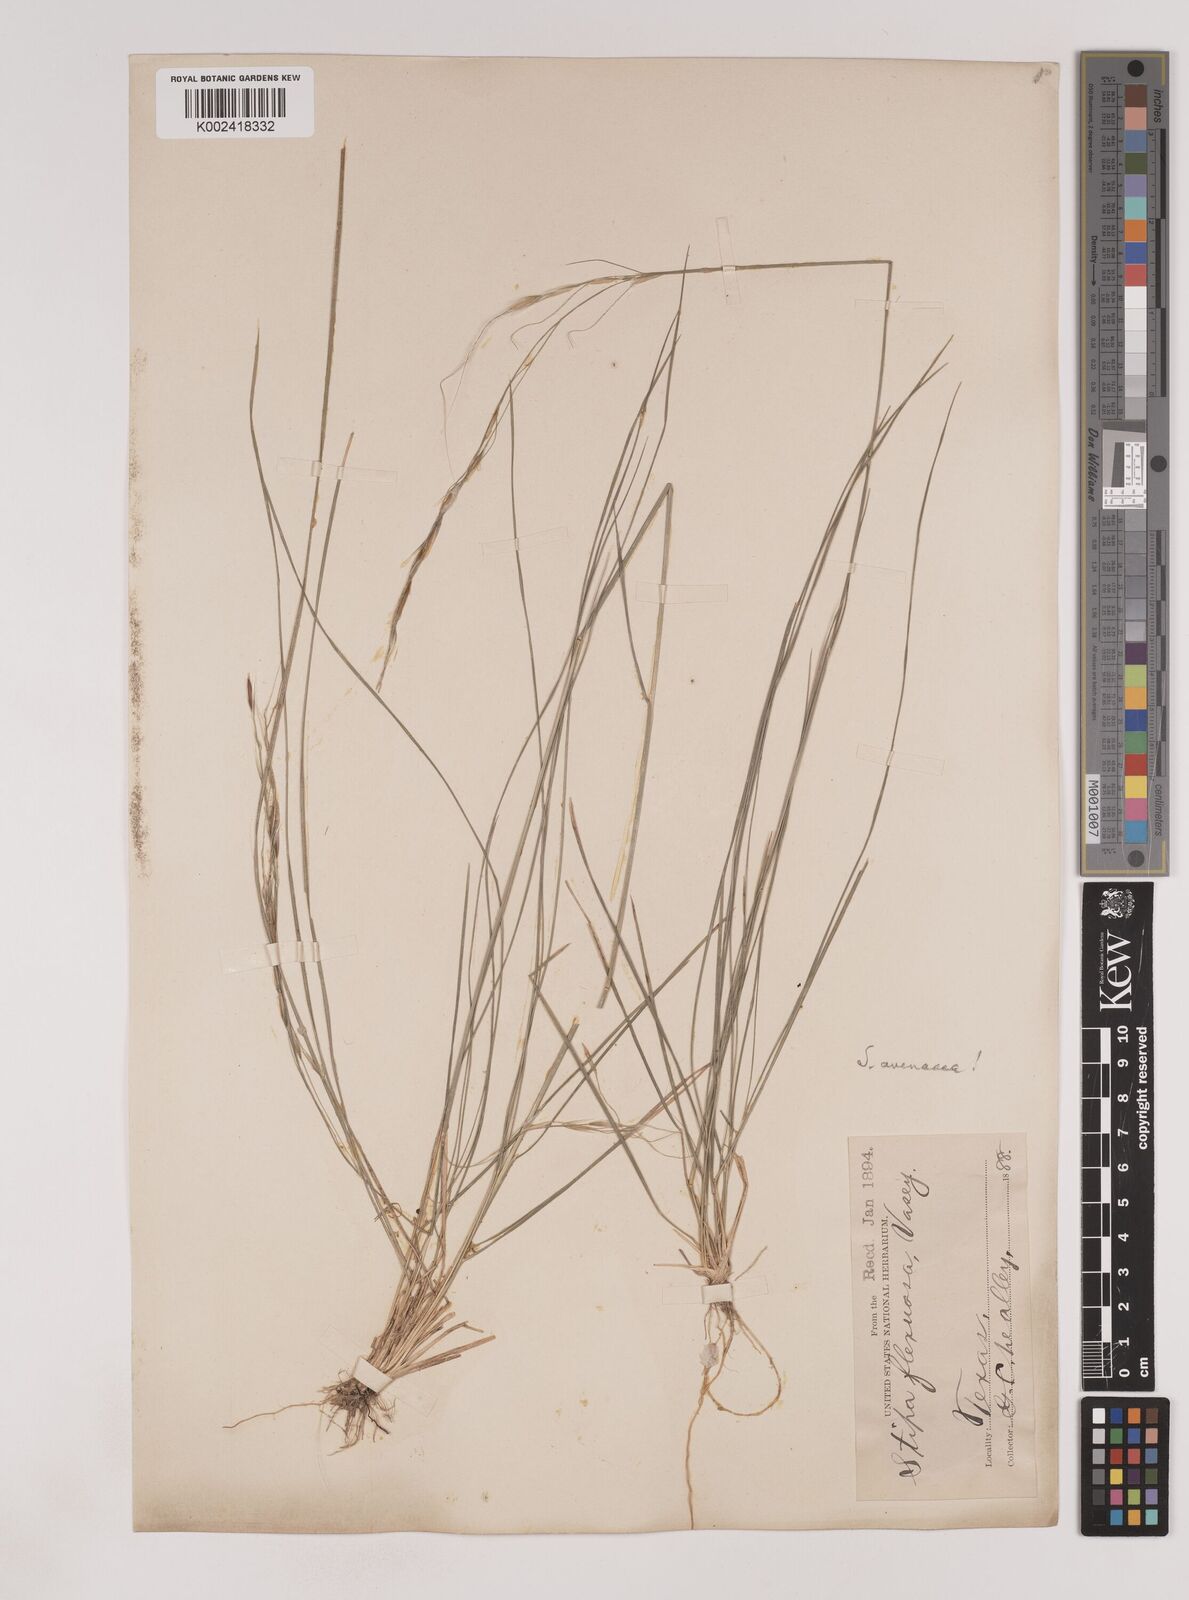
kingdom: Plantae
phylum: Tracheophyta
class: Liliopsida
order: Poales
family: Poaceae
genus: Piptochaetium
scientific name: Piptochaetium avenaceum
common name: Black bunchgrass
